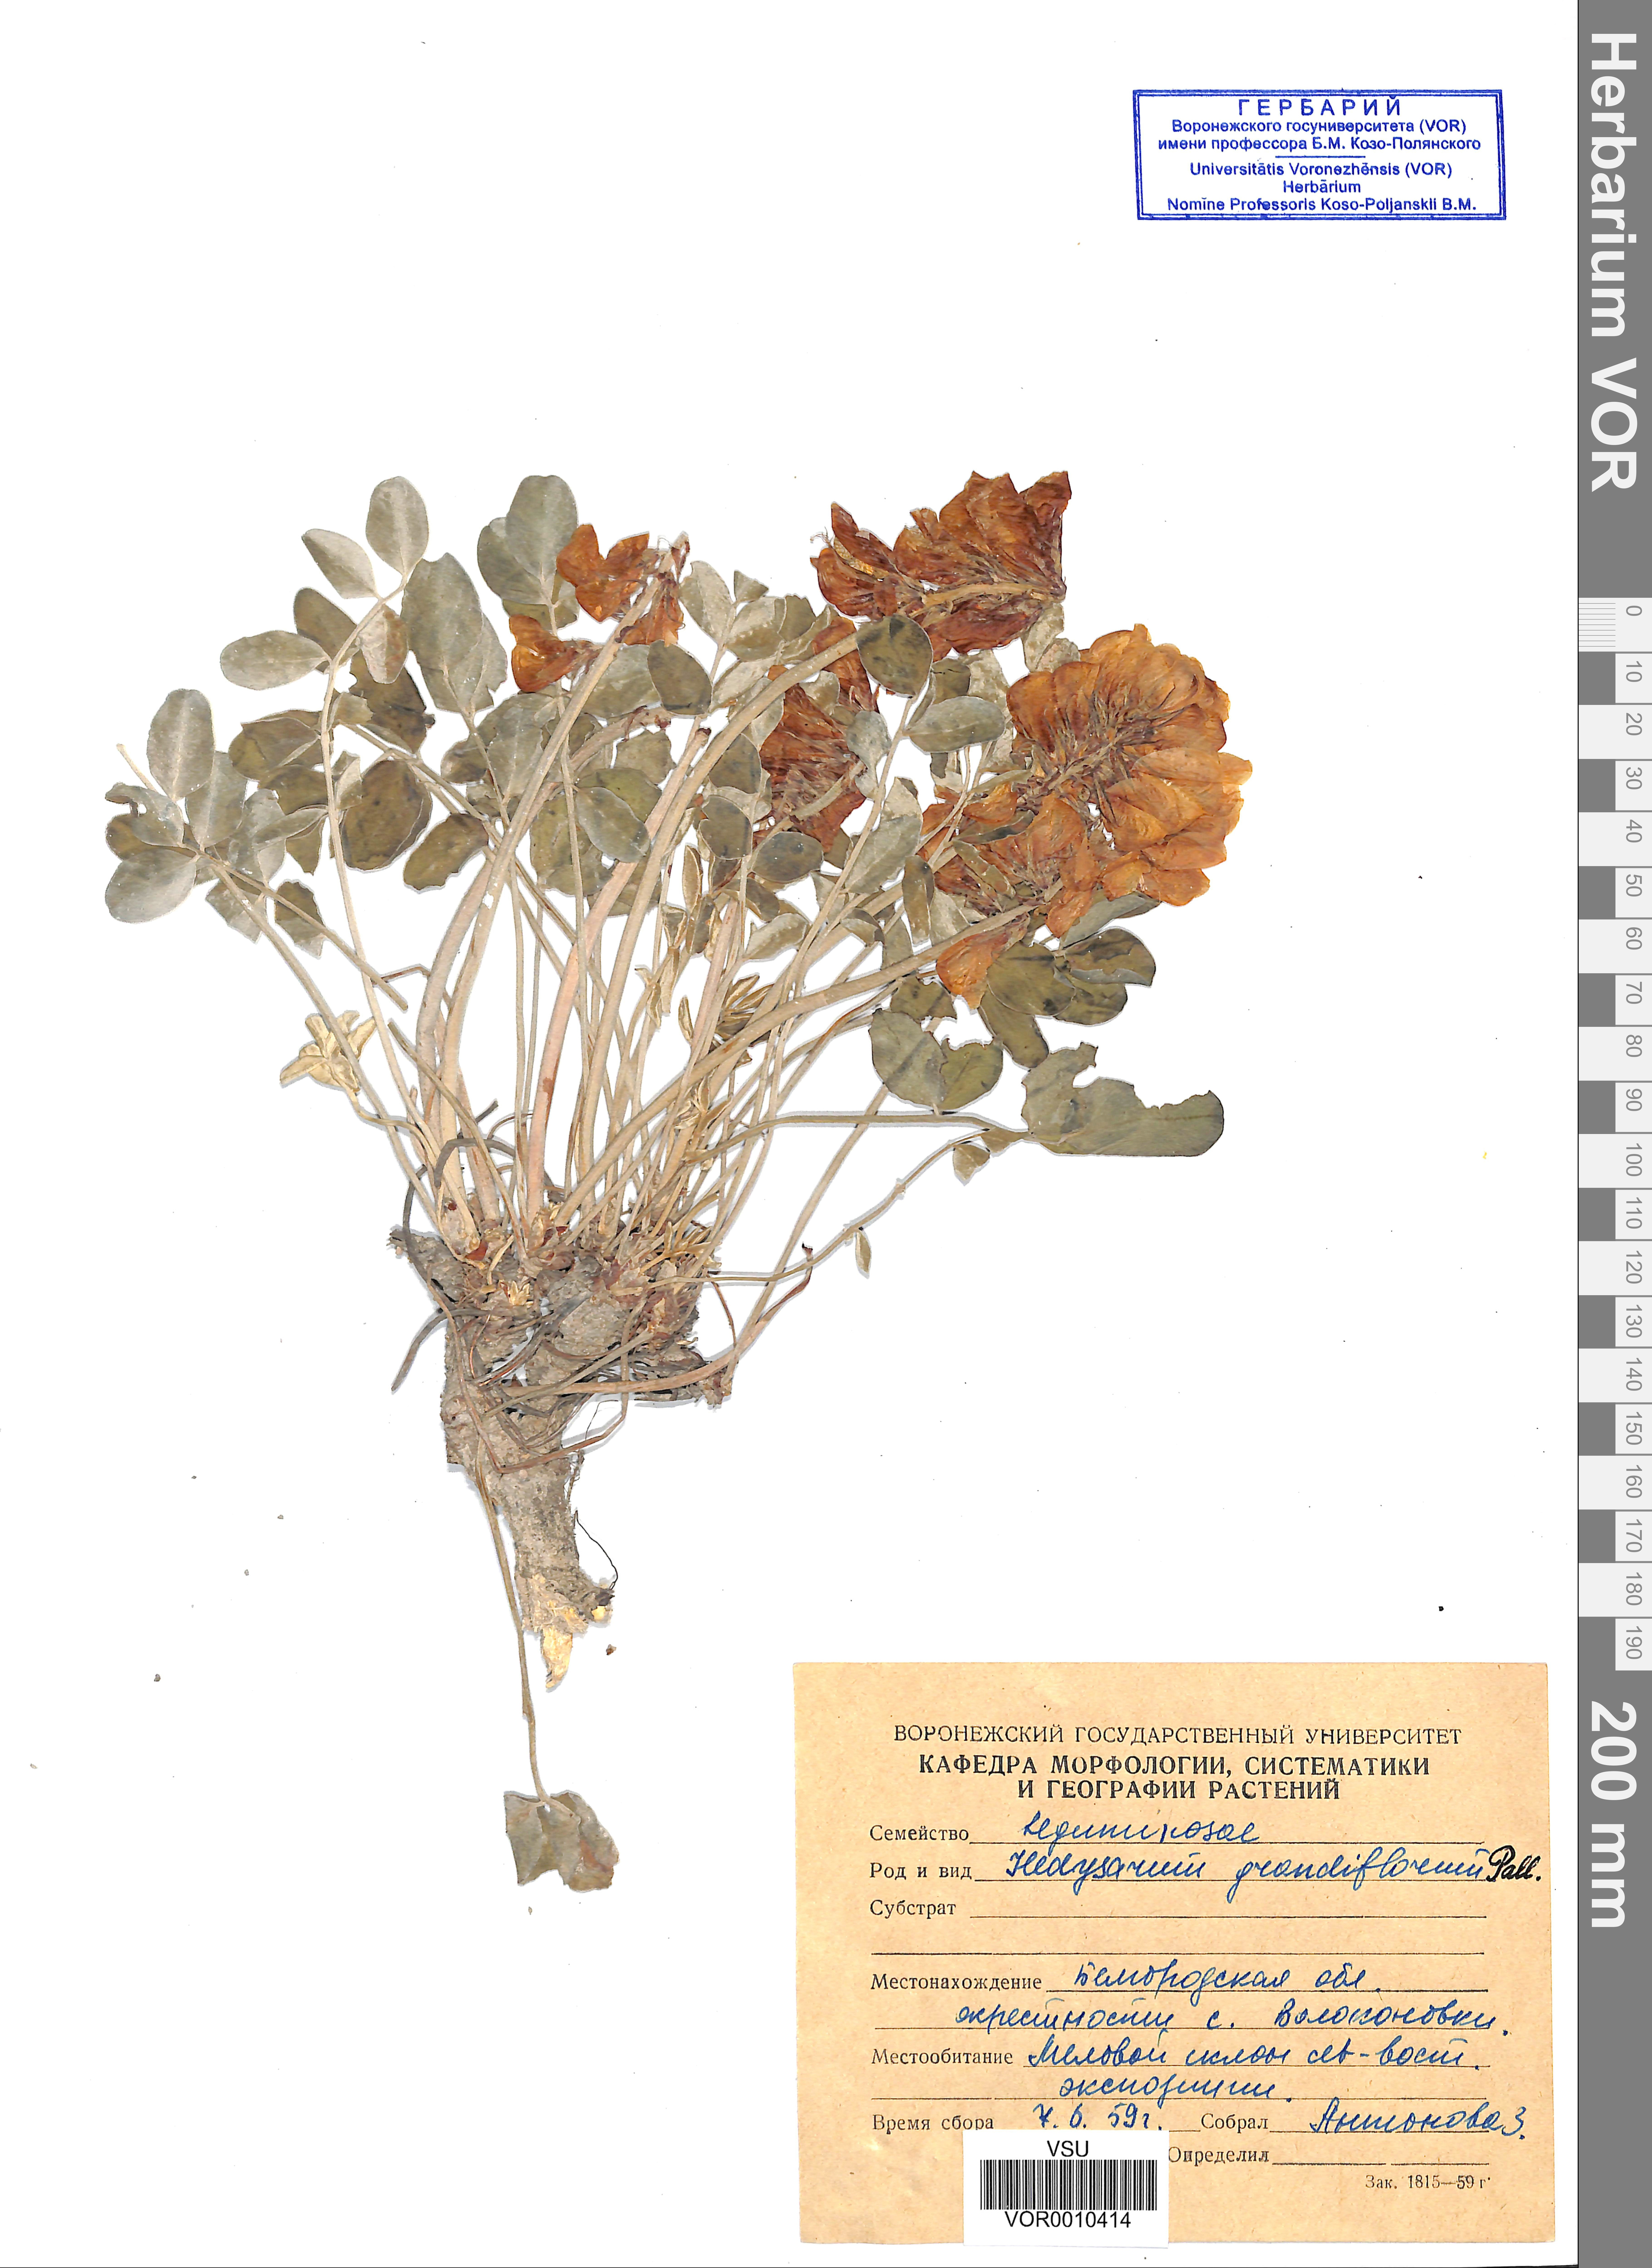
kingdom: Plantae
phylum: Tracheophyta
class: Magnoliopsida
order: Fabales
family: Fabaceae
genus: Hedysarum
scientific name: Hedysarum grandiflorum
